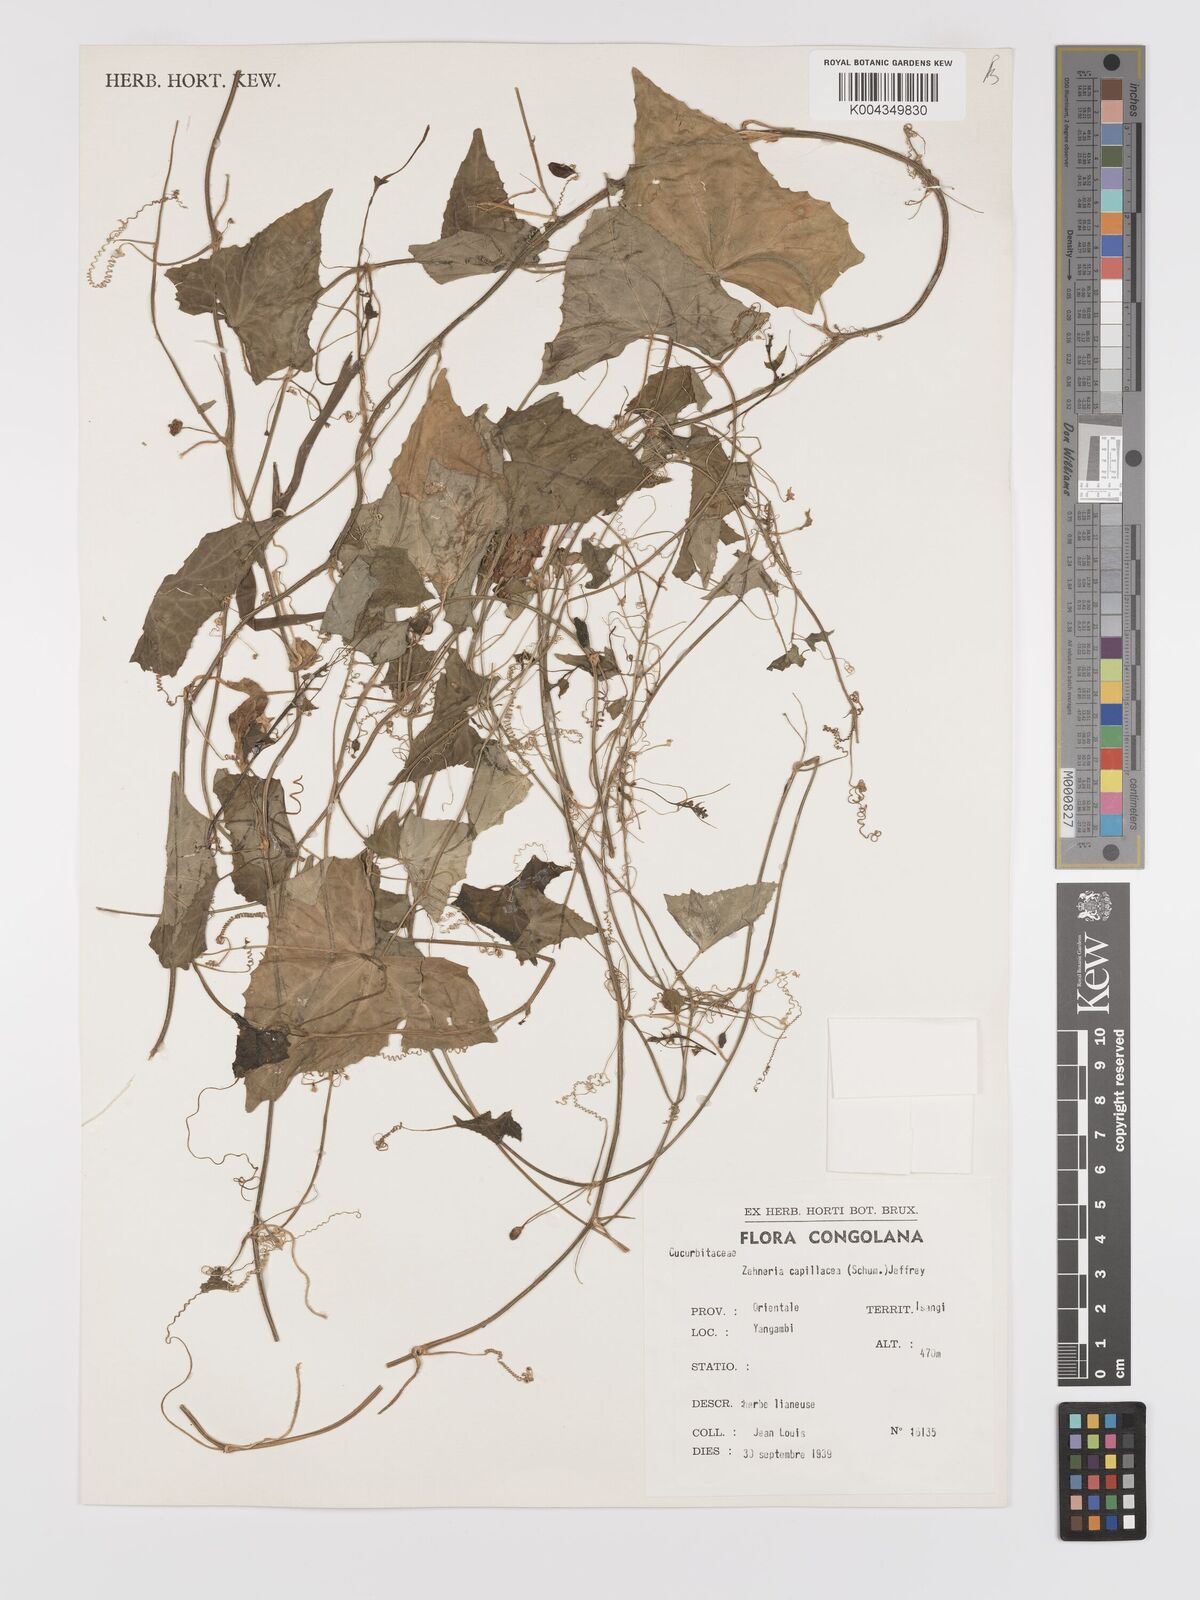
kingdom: Plantae
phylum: Tracheophyta
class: Magnoliopsida
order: Cucurbitales
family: Cucurbitaceae
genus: Zehneria
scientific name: Zehneria capillacea
